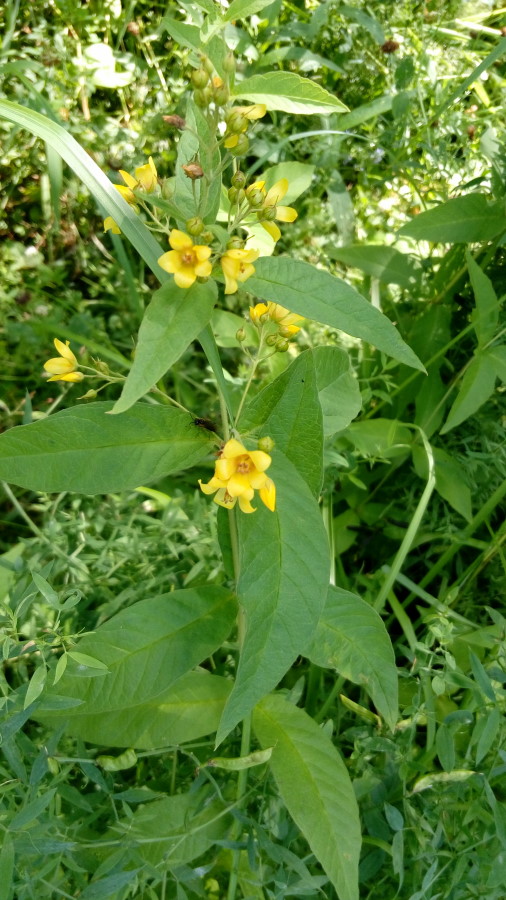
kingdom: Plantae
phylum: Tracheophyta
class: Magnoliopsida
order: Ericales
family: Primulaceae
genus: Lysimachia
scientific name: Lysimachia vulgaris
